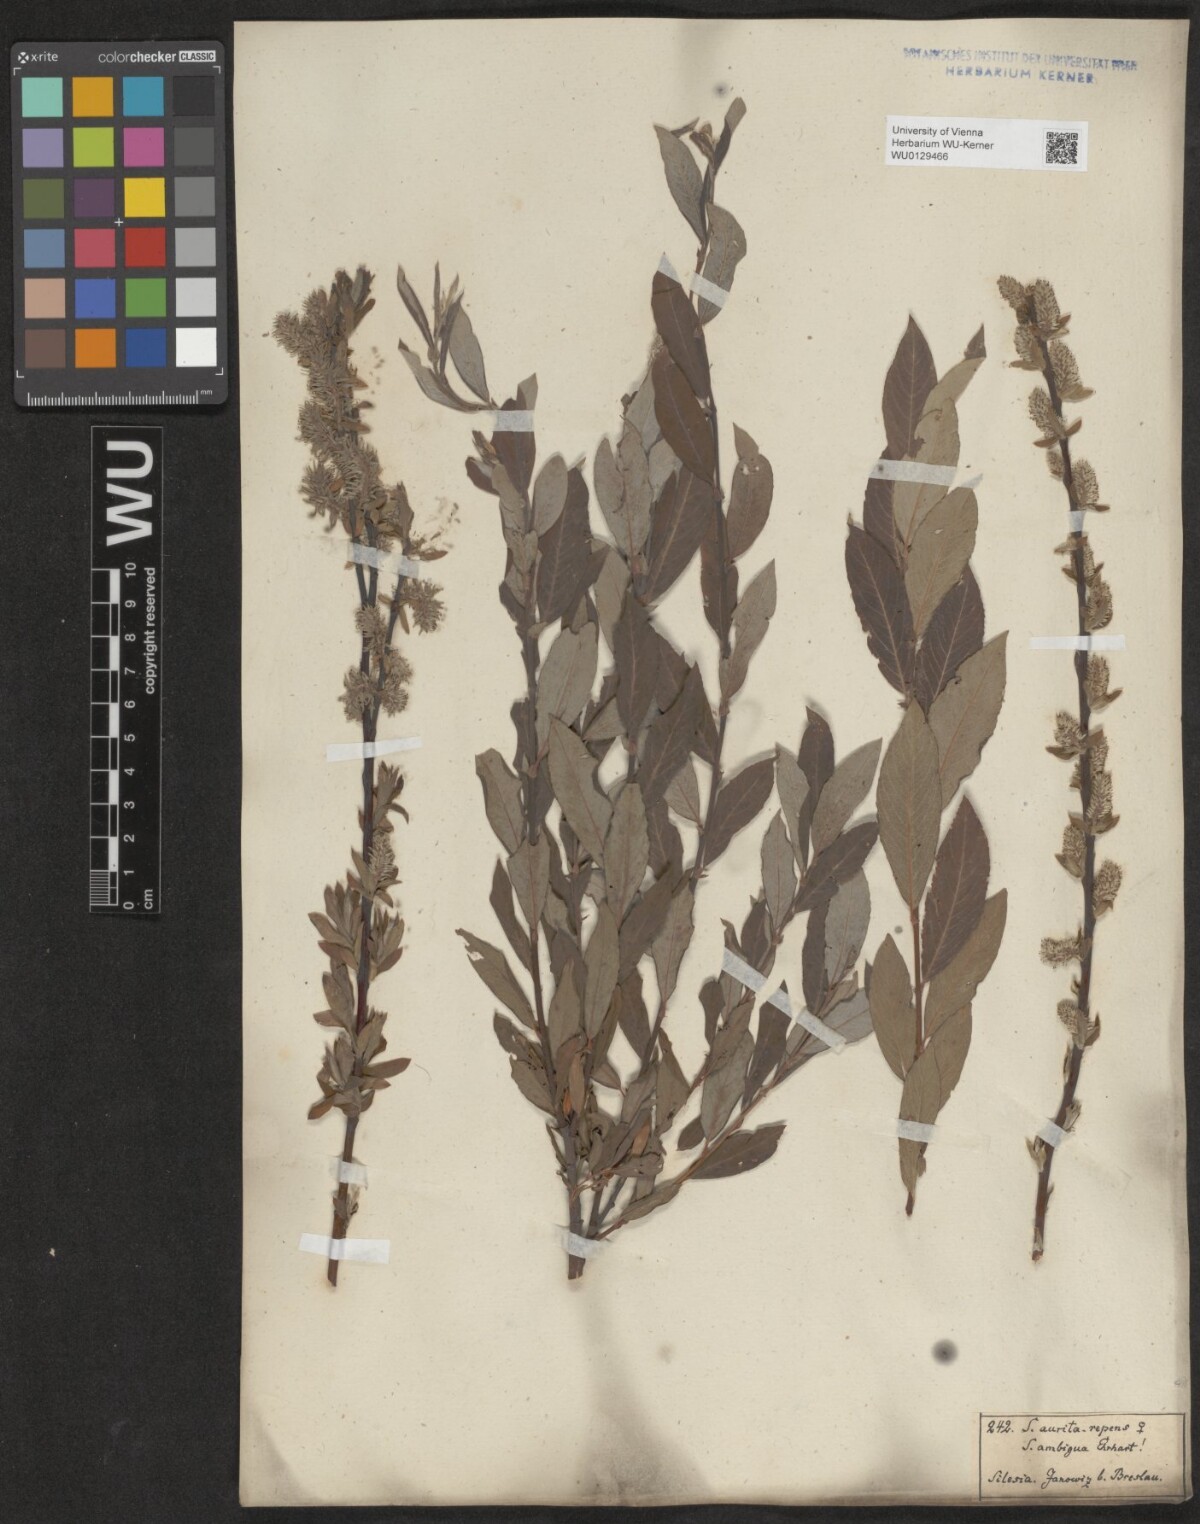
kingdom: Plantae
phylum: Tracheophyta
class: Magnoliopsida
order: Malpighiales
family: Salicaceae
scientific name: Salicaceae
